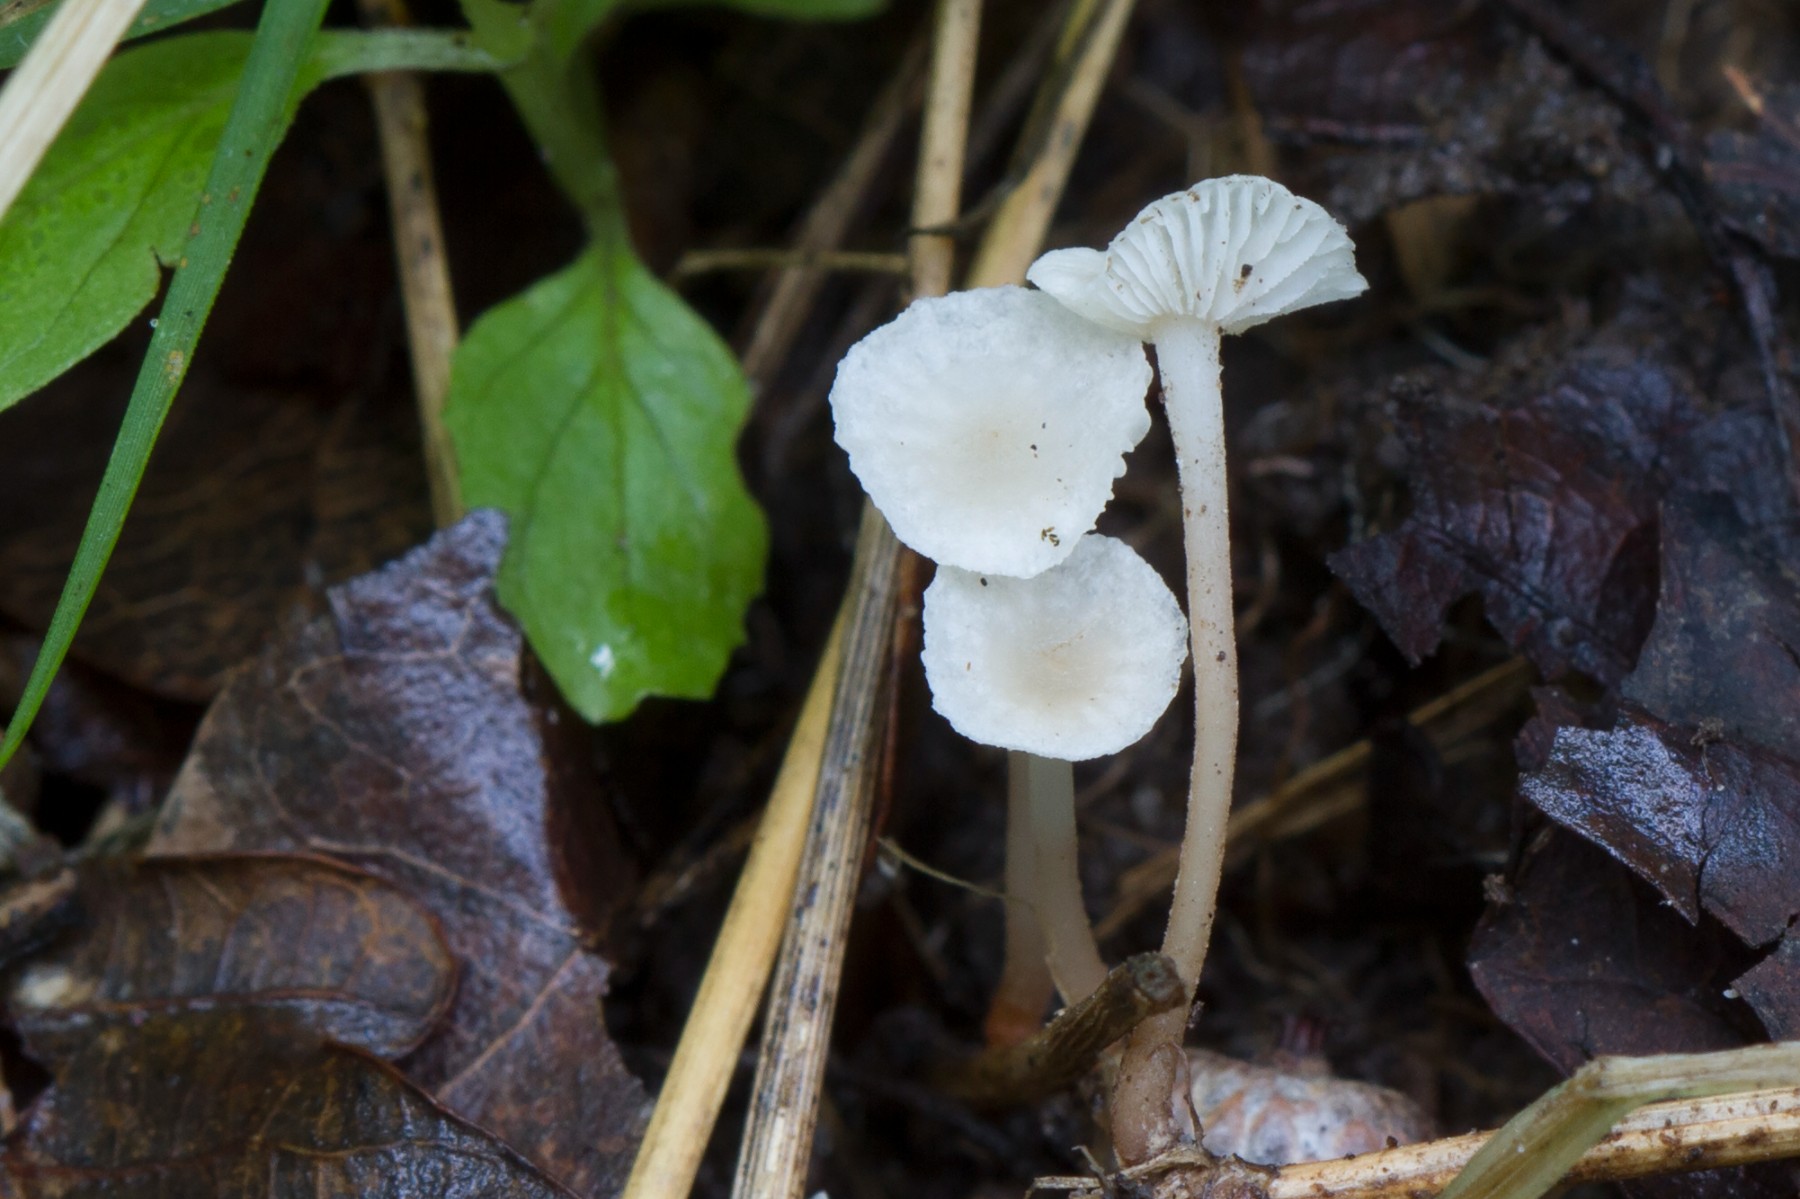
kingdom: Fungi
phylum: Basidiomycota
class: Agaricomycetes
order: Agaricales
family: Omphalotaceae
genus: Collybiopsis
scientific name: Collybiopsis vaillantii
